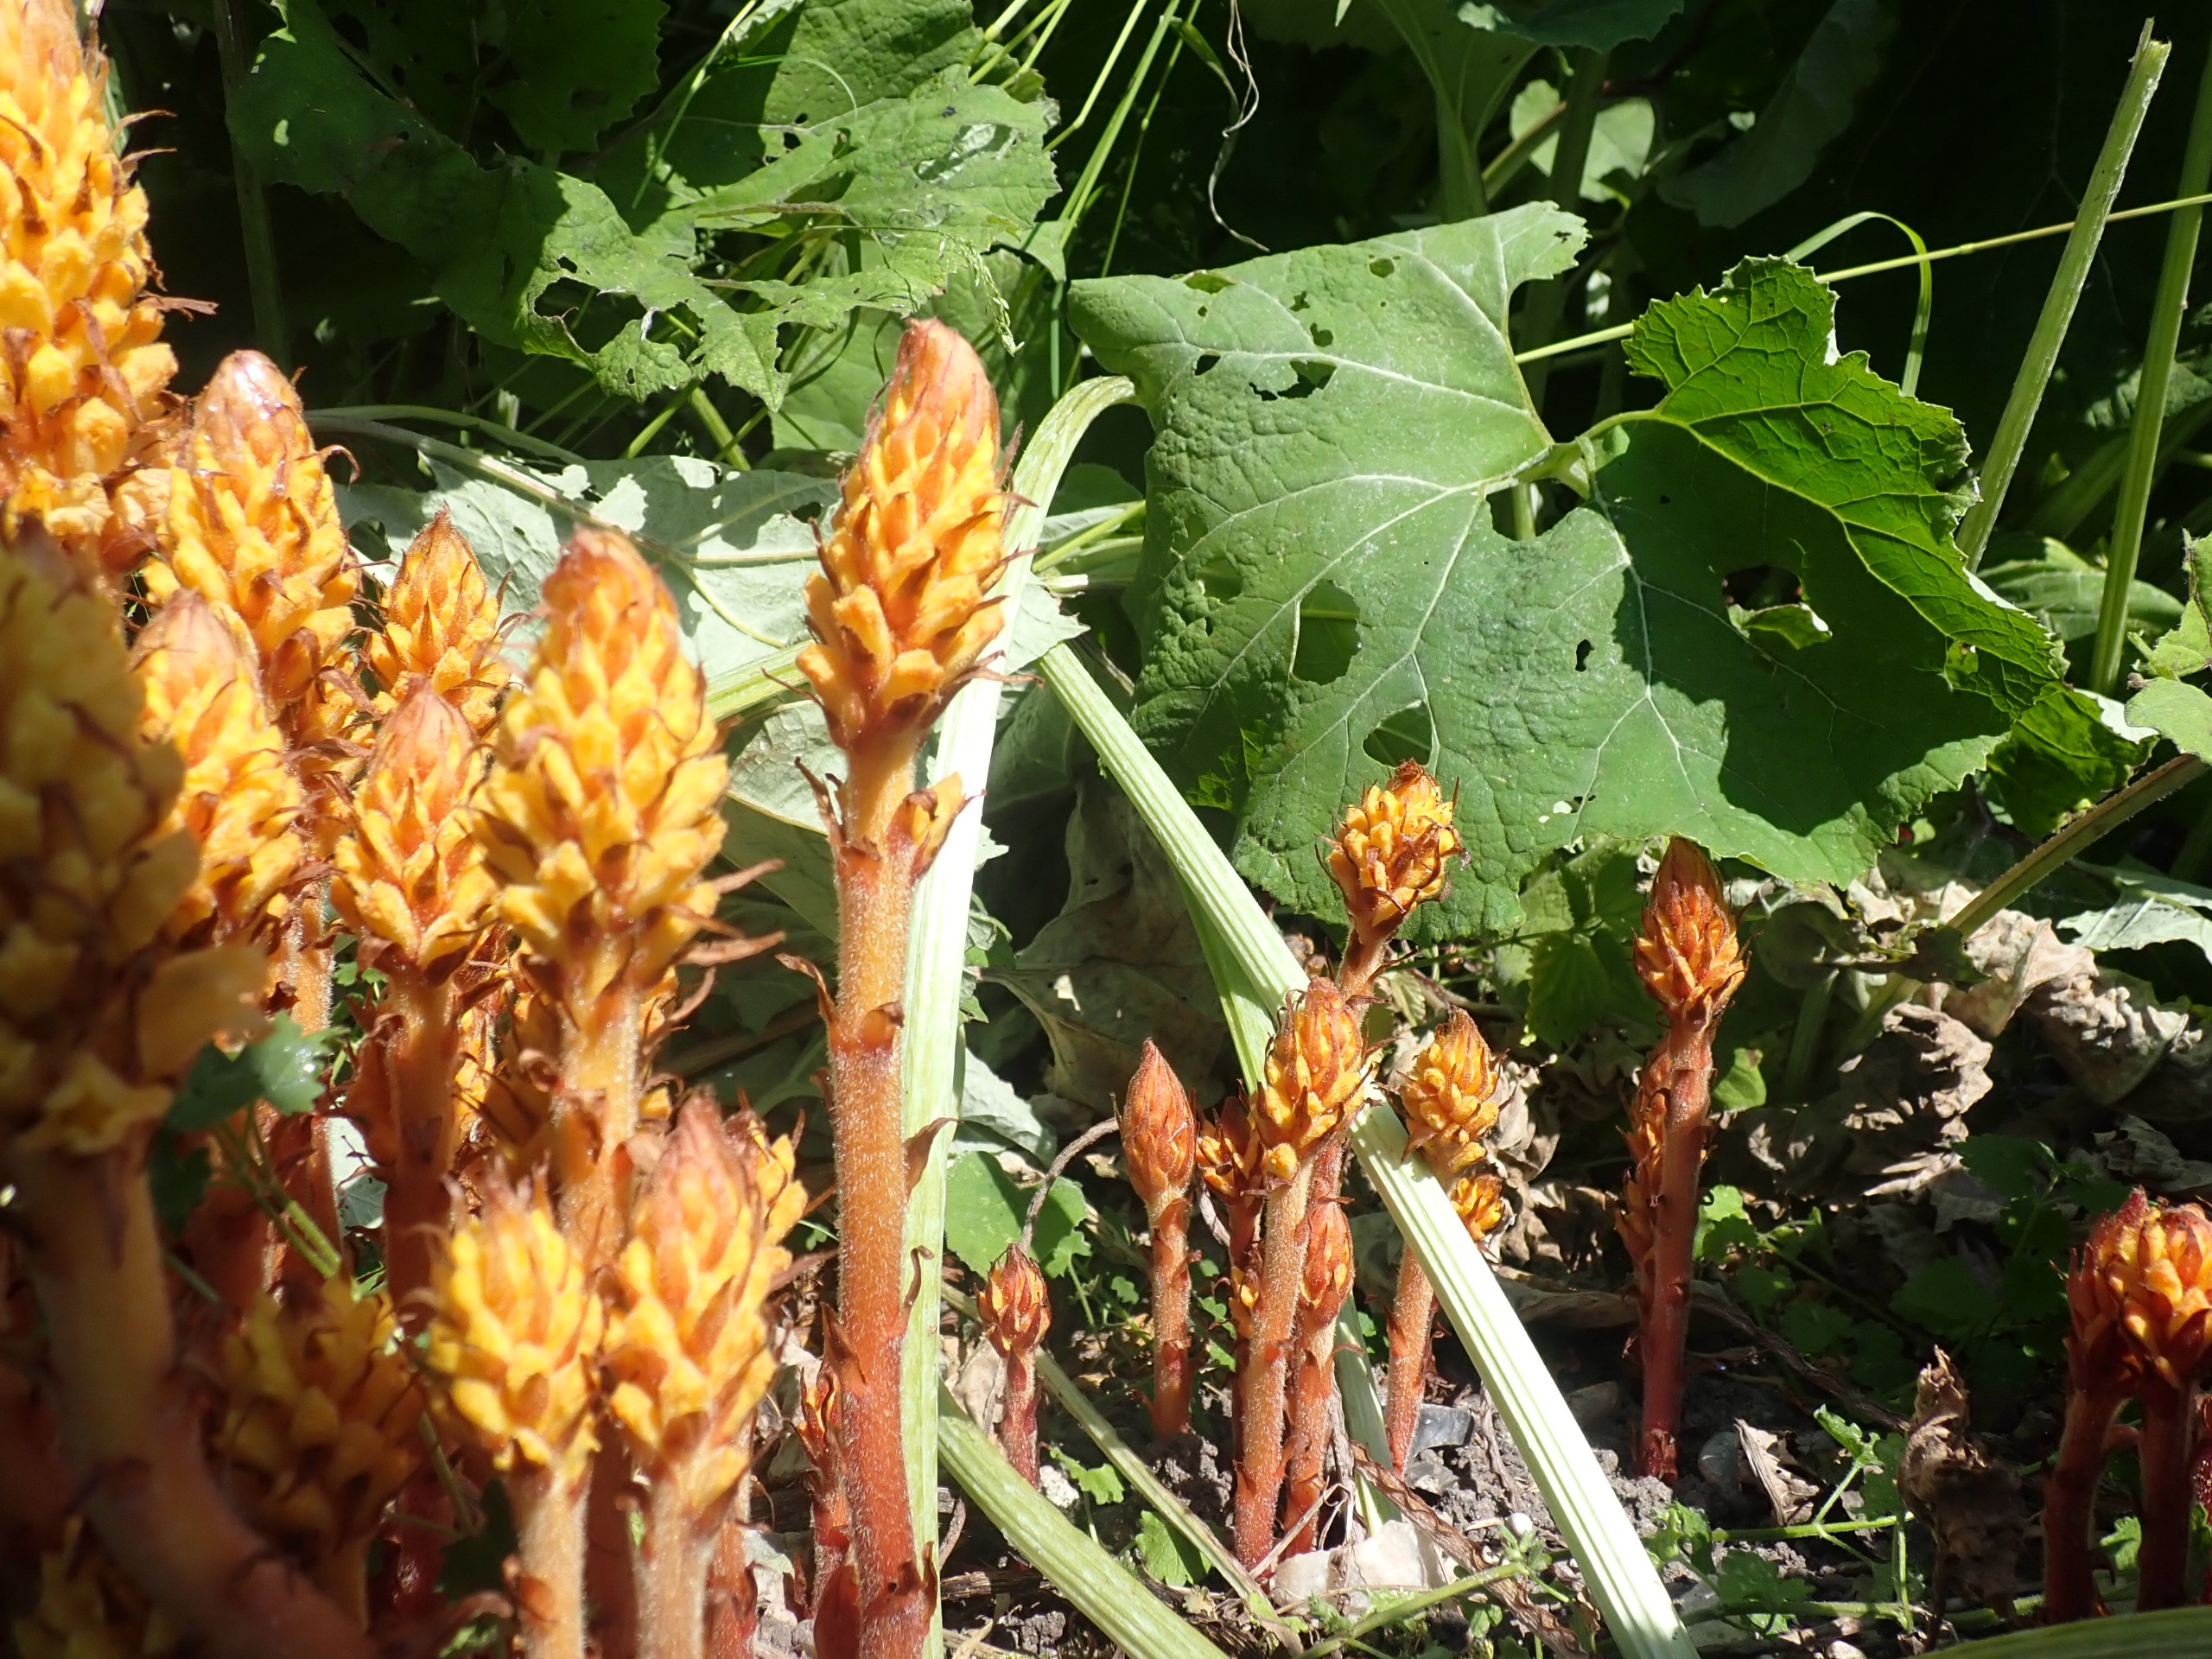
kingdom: Plantae
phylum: Tracheophyta
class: Magnoliopsida
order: Lamiales
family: Orobanchaceae
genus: Orobanche
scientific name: Orobanche flava
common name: Gul gyvelkvæler
